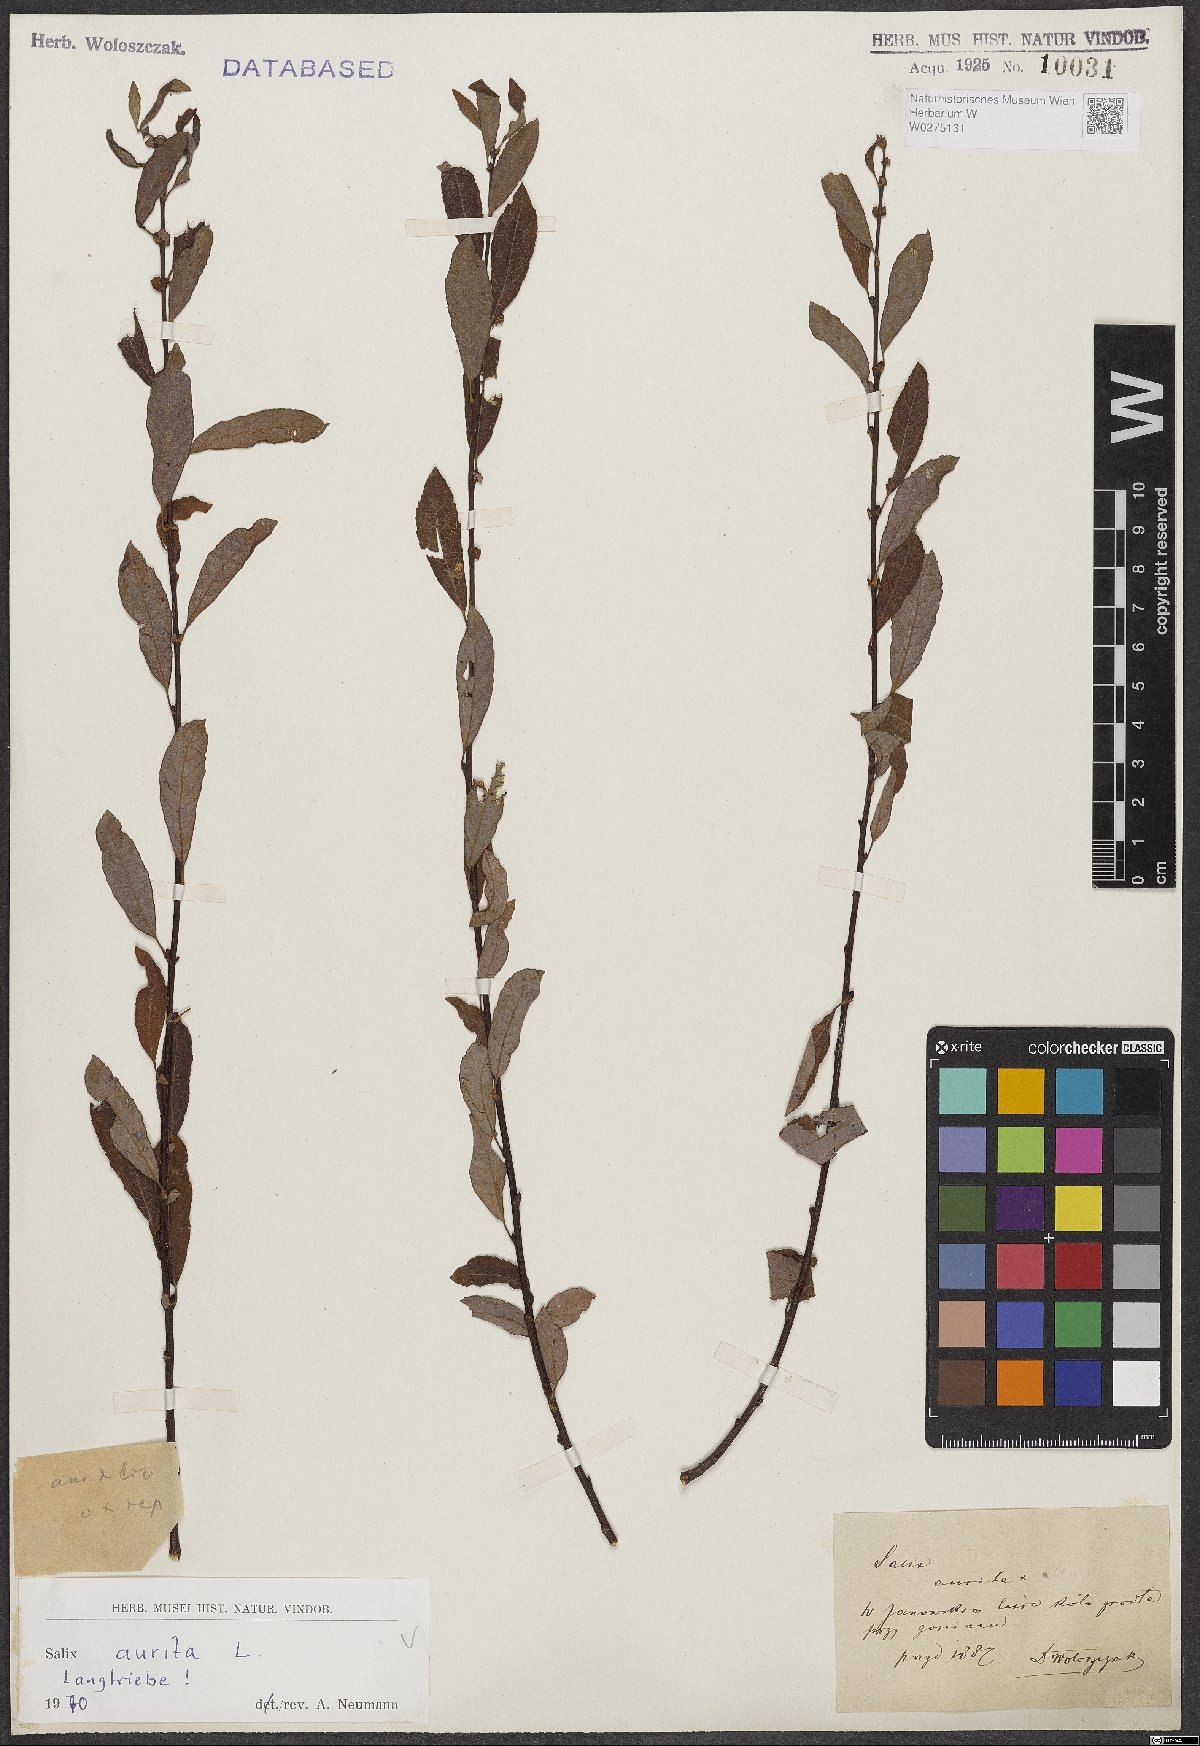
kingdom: Plantae
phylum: Tracheophyta
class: Magnoliopsida
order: Malpighiales
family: Salicaceae
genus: Salix
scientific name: Salix aurita
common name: Eared willow
